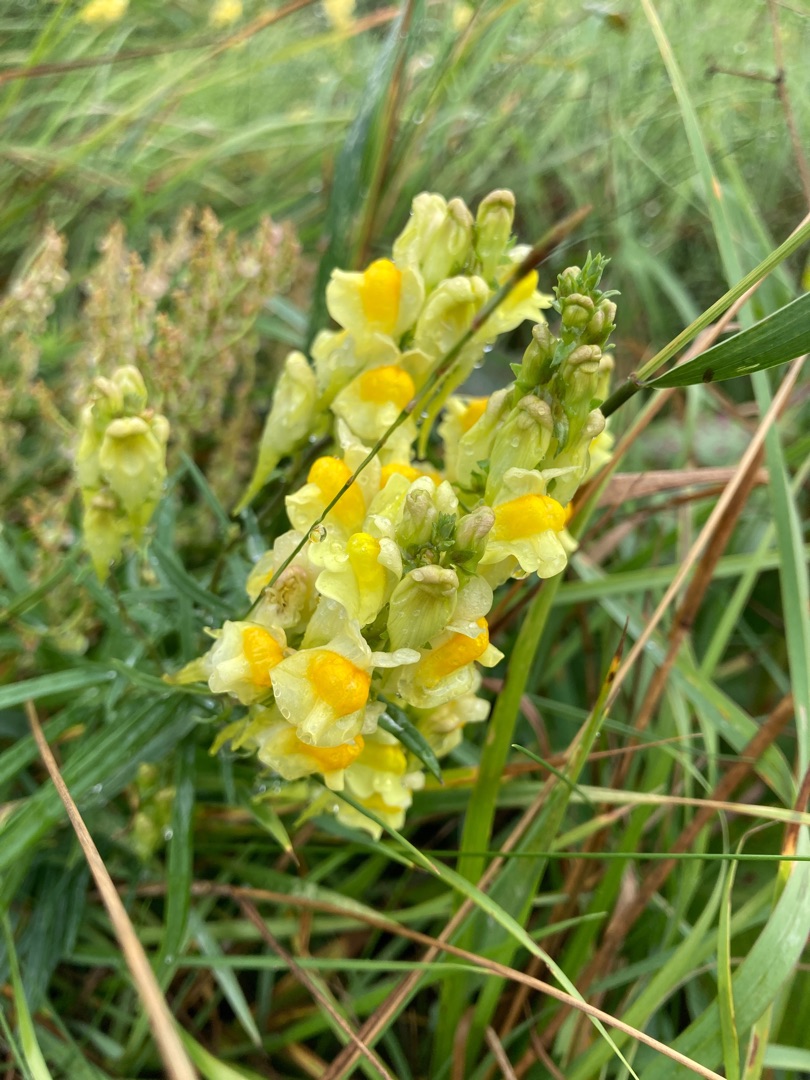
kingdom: Plantae
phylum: Tracheophyta
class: Magnoliopsida
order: Lamiales
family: Plantaginaceae
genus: Linaria
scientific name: Linaria vulgaris
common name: Almindelig torskemund
